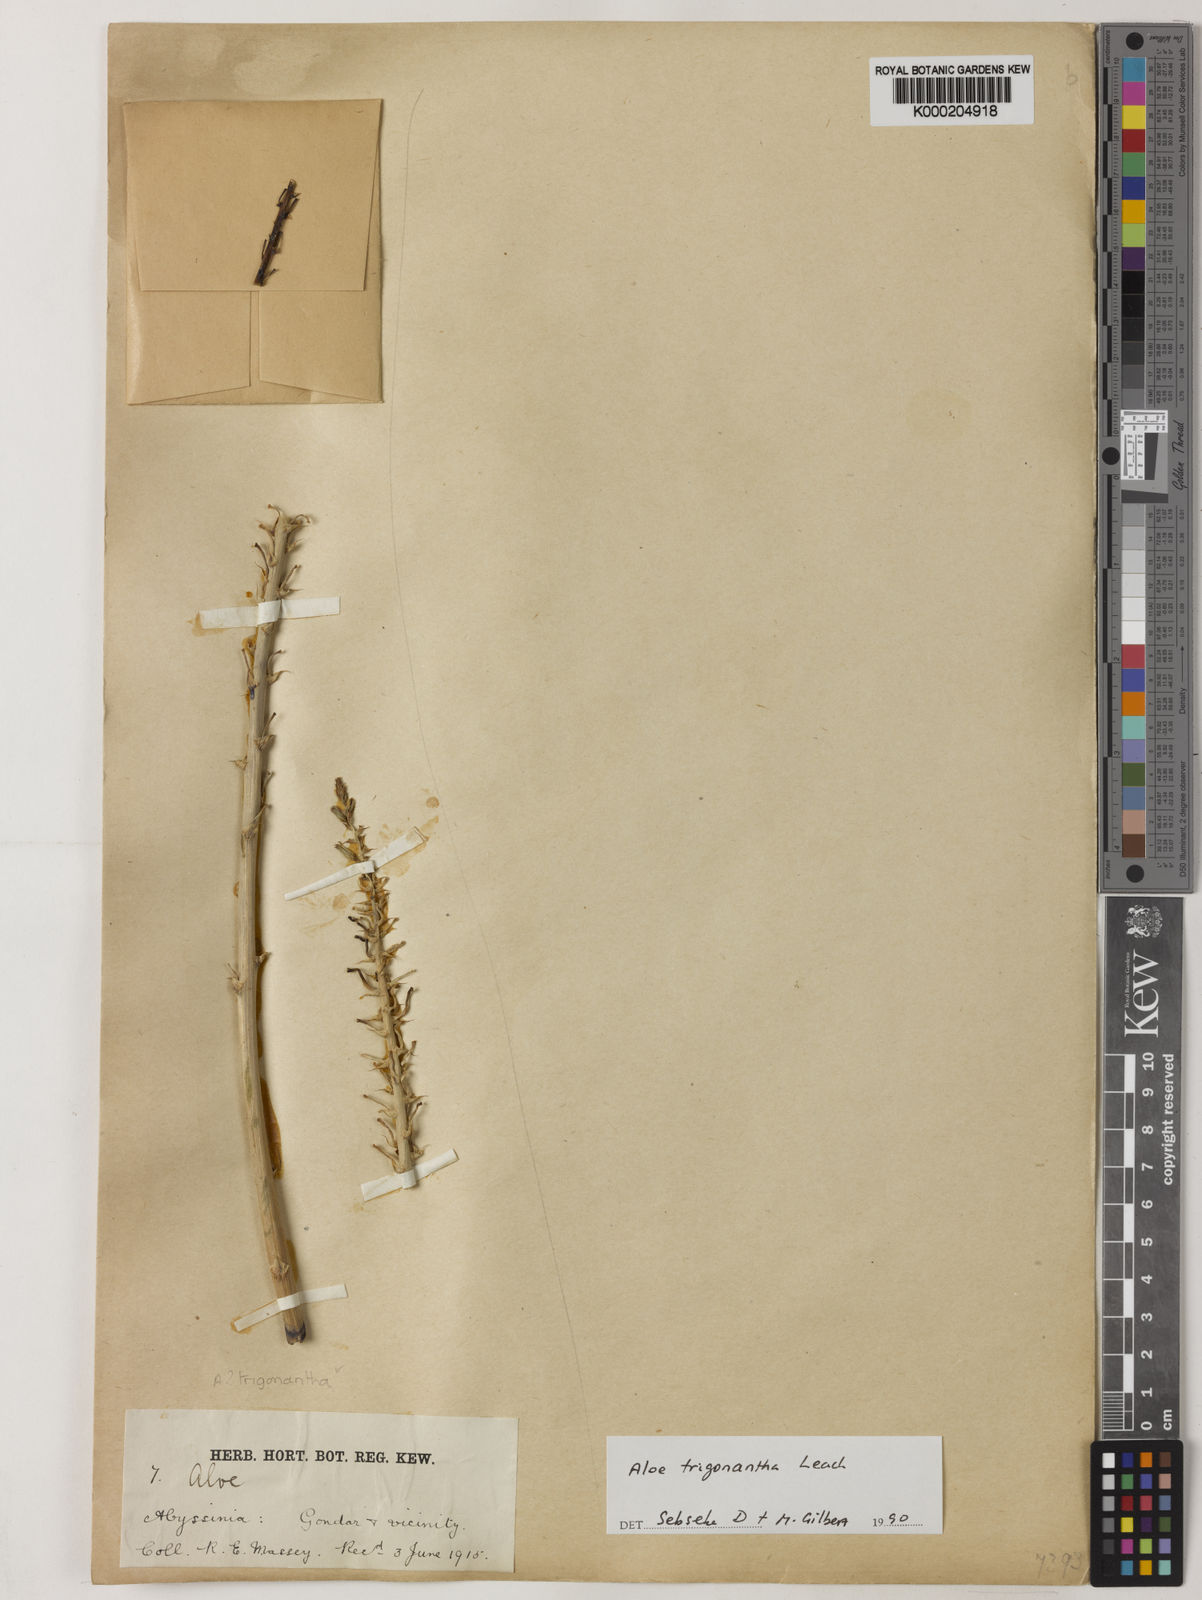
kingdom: Plantae
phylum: Tracheophyta
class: Liliopsida
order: Asparagales
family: Asphodelaceae
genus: Aloe
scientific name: Aloe trigonantha
